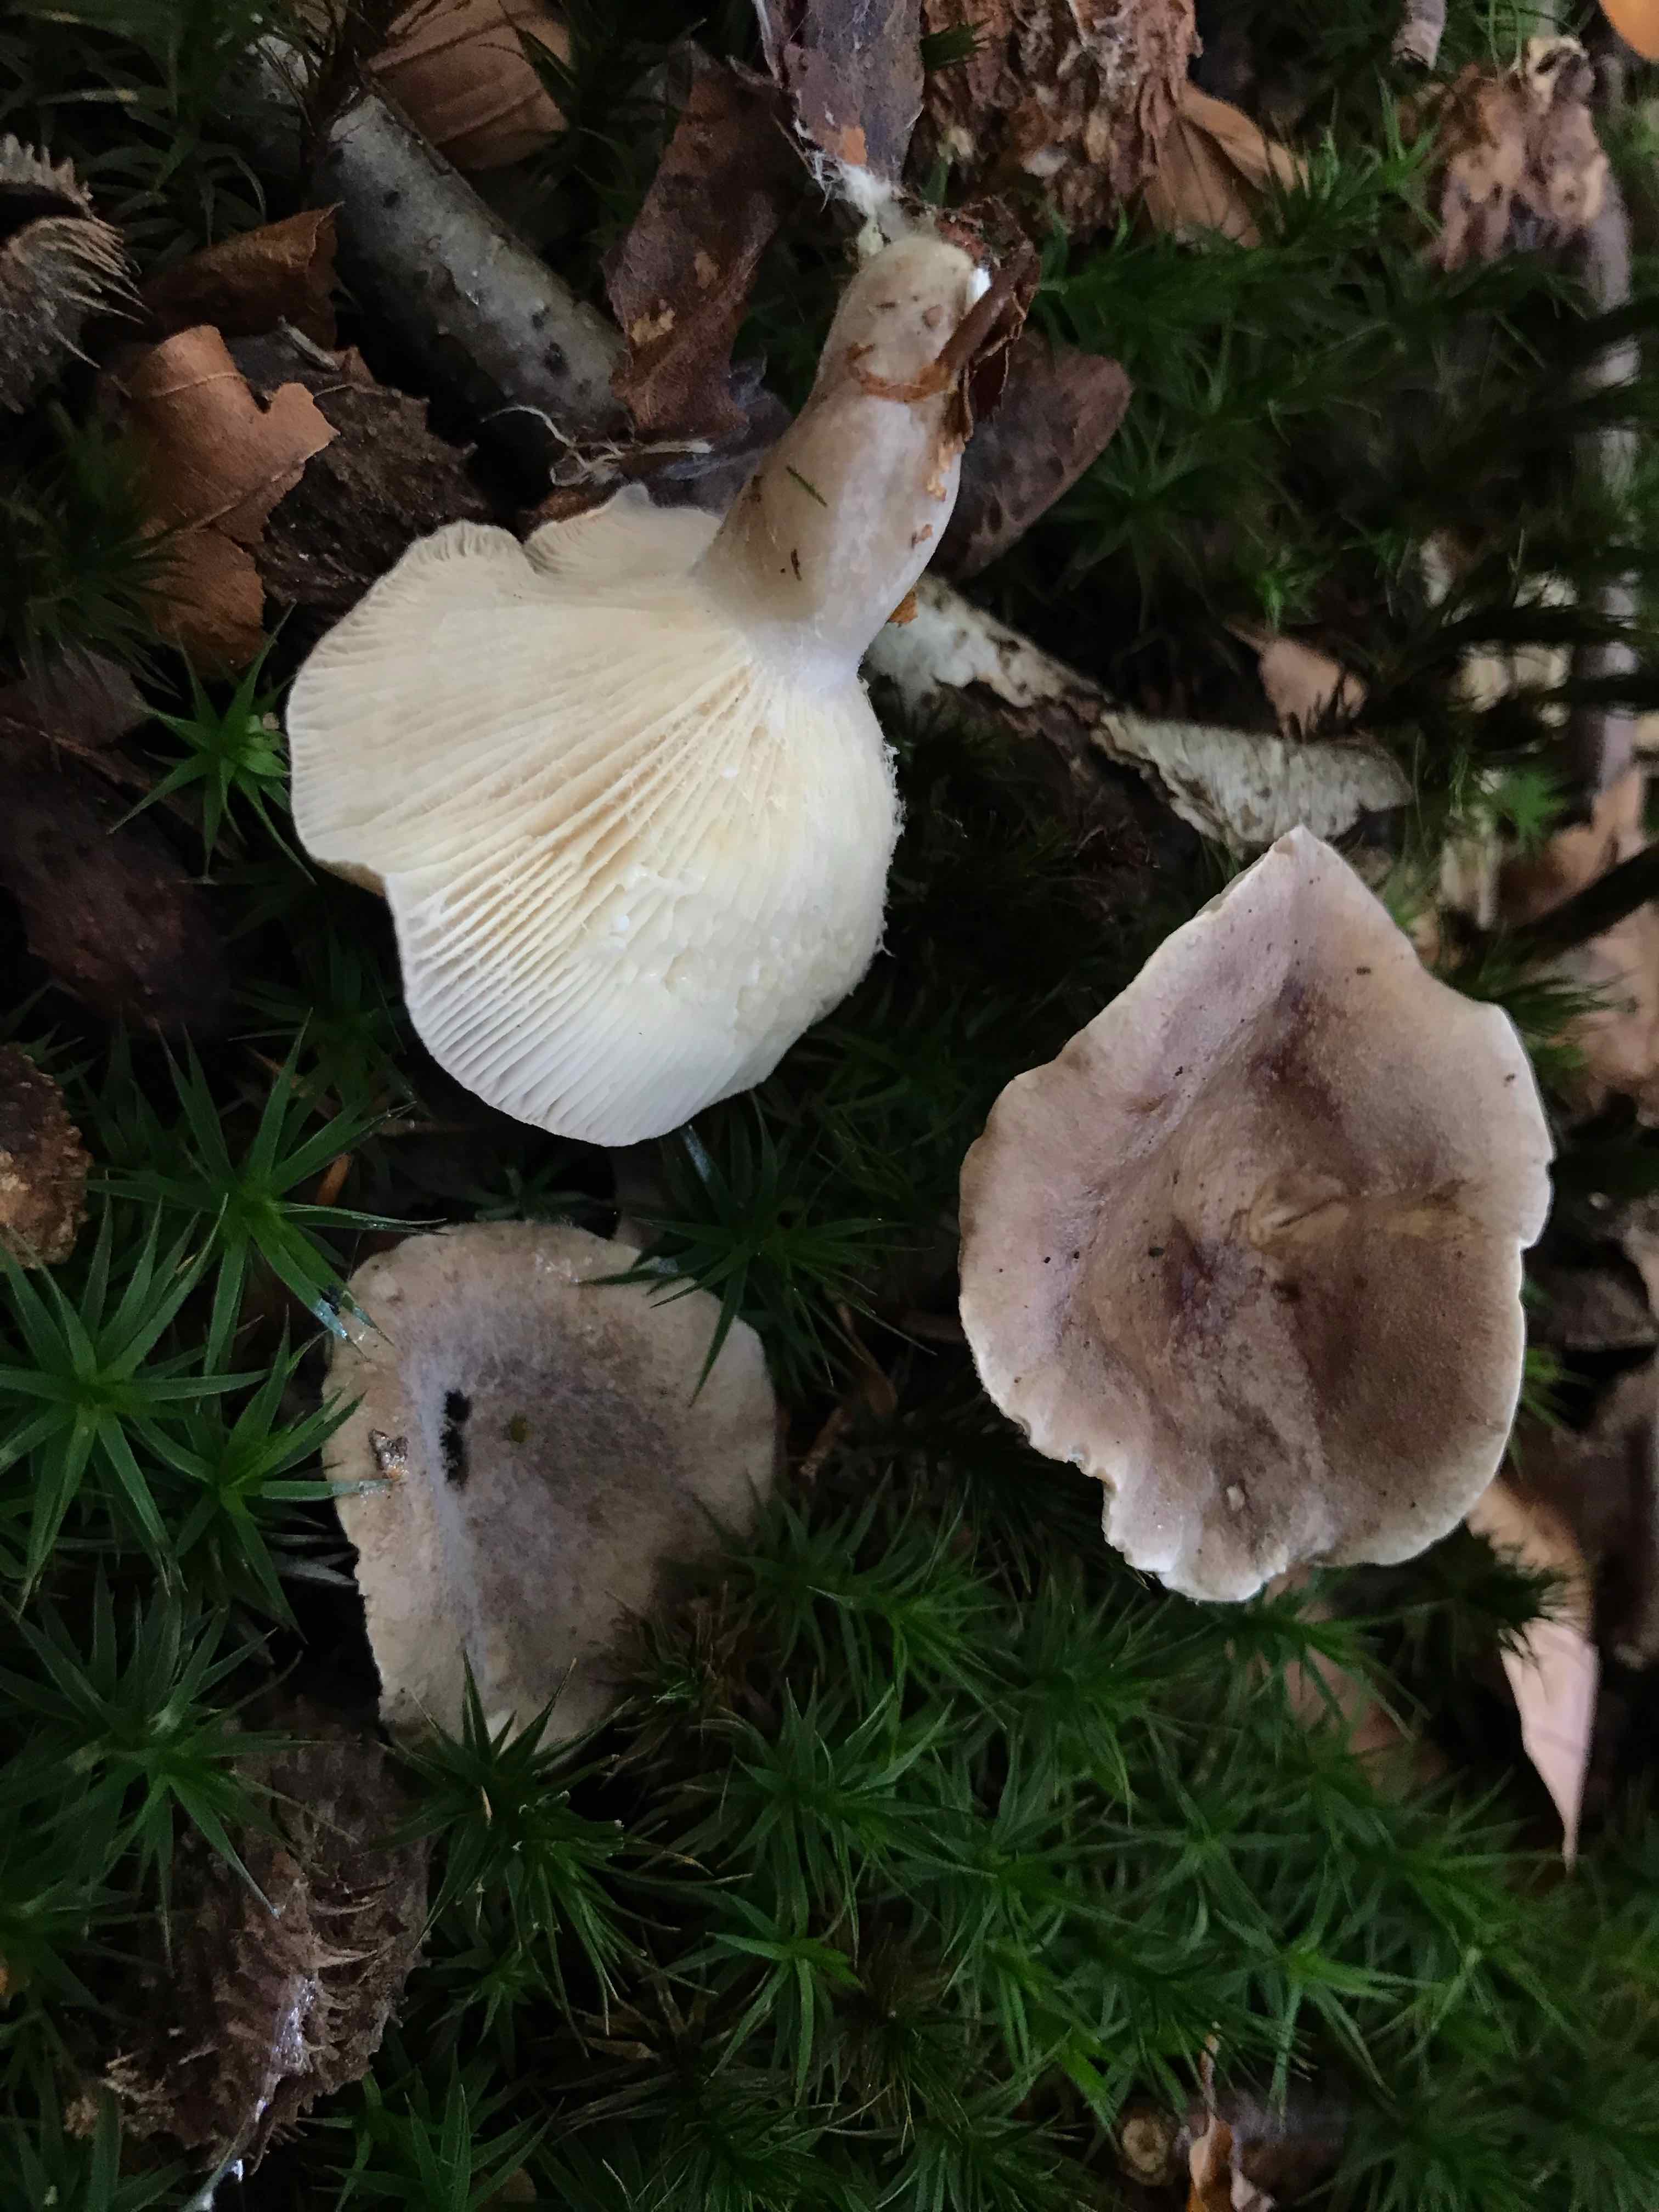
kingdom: Fungi
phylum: Basidiomycota
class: Agaricomycetes
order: Russulales
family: Russulaceae
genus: Lactarius
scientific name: Lactarius fluens
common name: lysrandet mælkehat
